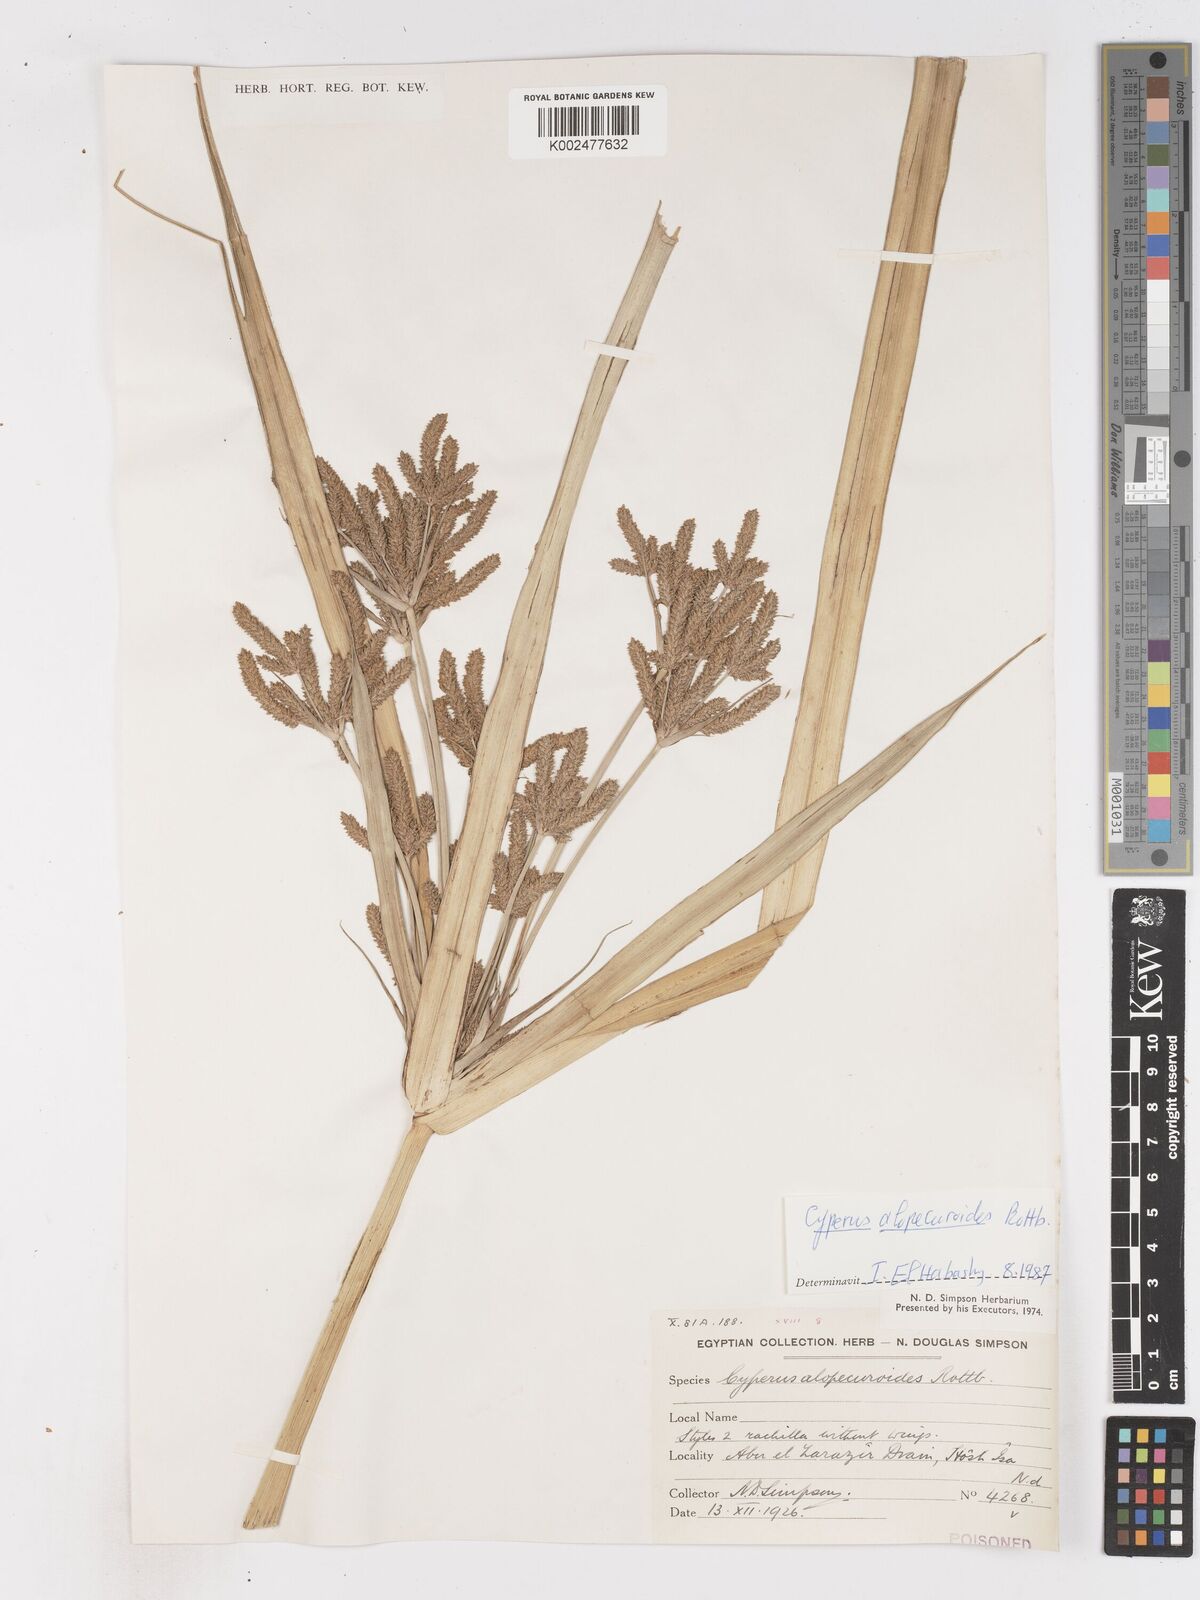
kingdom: Plantae
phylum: Tracheophyta
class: Liliopsida
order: Poales
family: Cyperaceae
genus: Cyperus
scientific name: Cyperus alopecuroides
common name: Foxtail flatsedge
